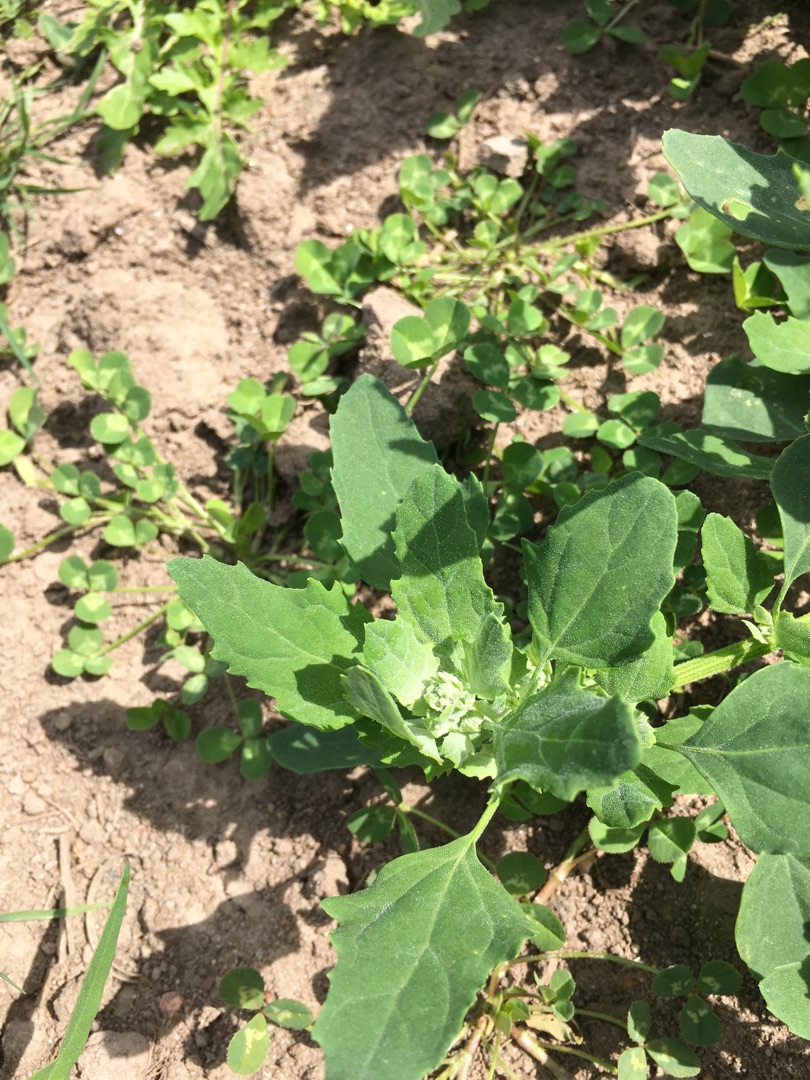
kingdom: Plantae
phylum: Tracheophyta
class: Magnoliopsida
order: Caryophyllales
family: Amaranthaceae
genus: Chenopodium
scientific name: Chenopodium album
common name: Hvidmelet gåsefod
